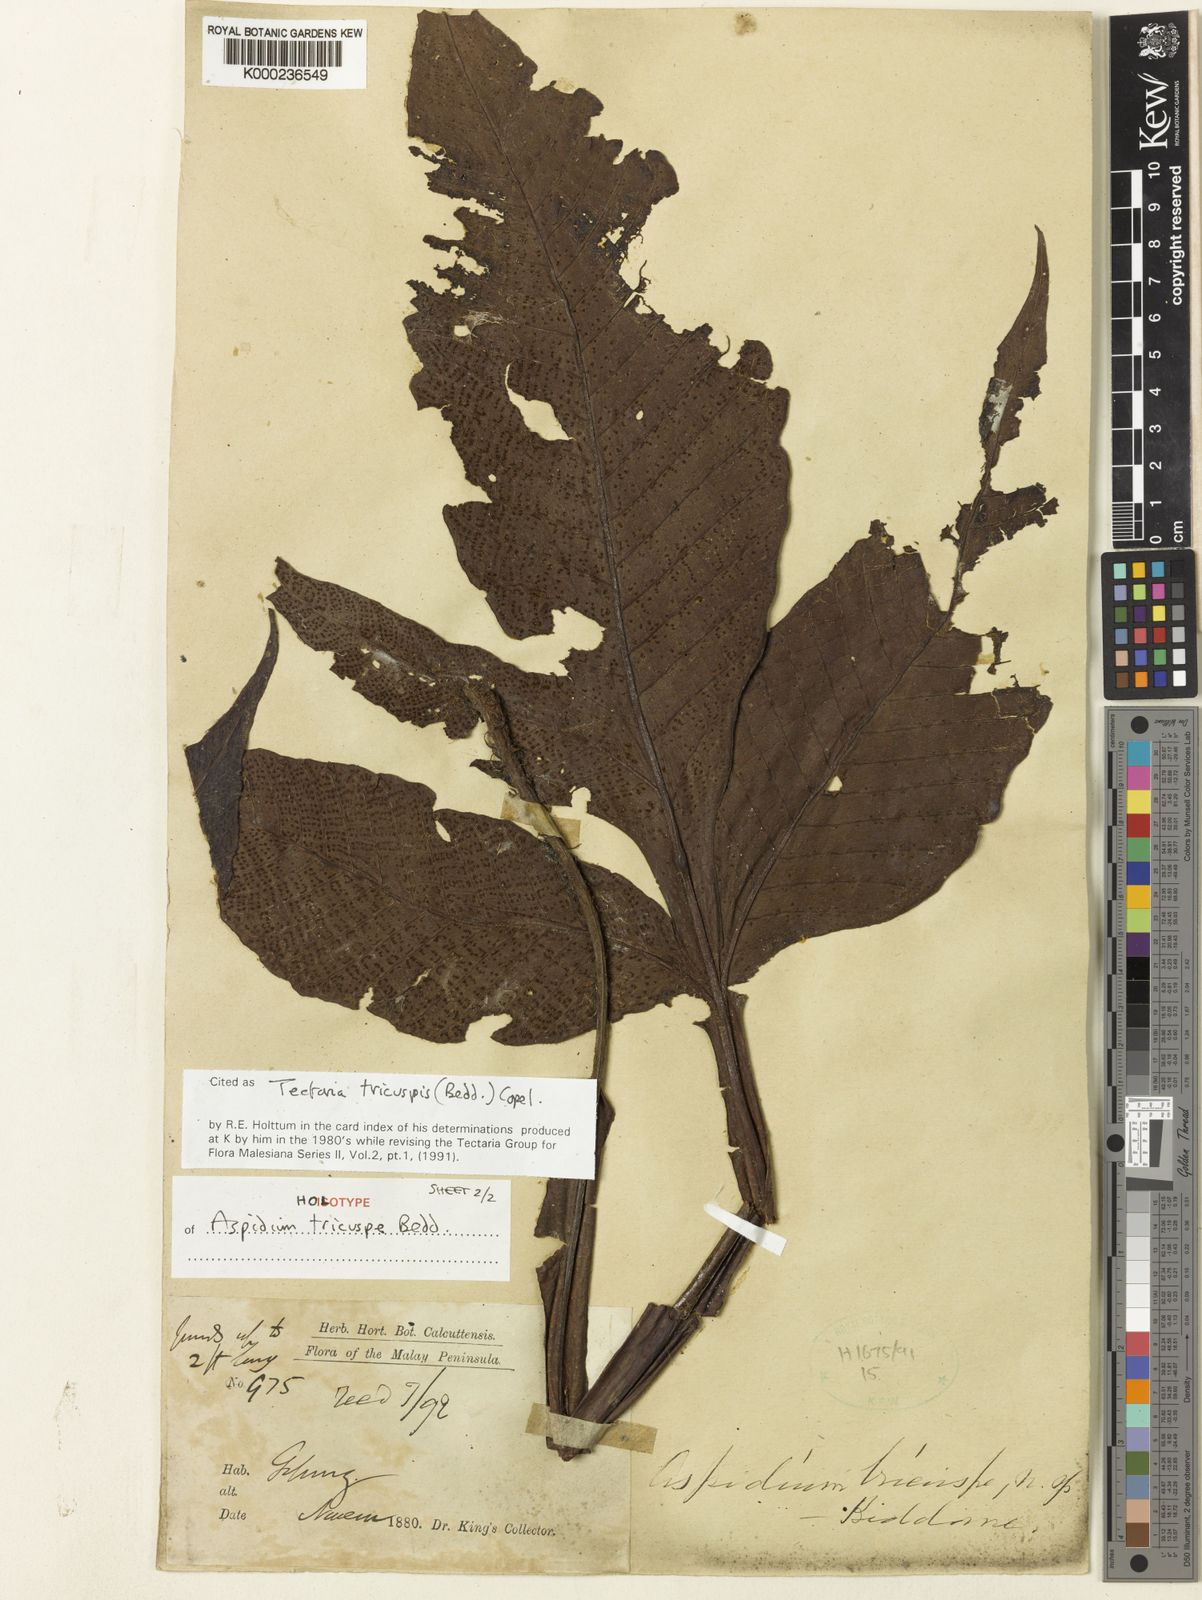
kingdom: Plantae
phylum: Tracheophyta
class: Polypodiopsida
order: Polypodiales
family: Tectariaceae
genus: Tectaria
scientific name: Tectaria tricuspis
